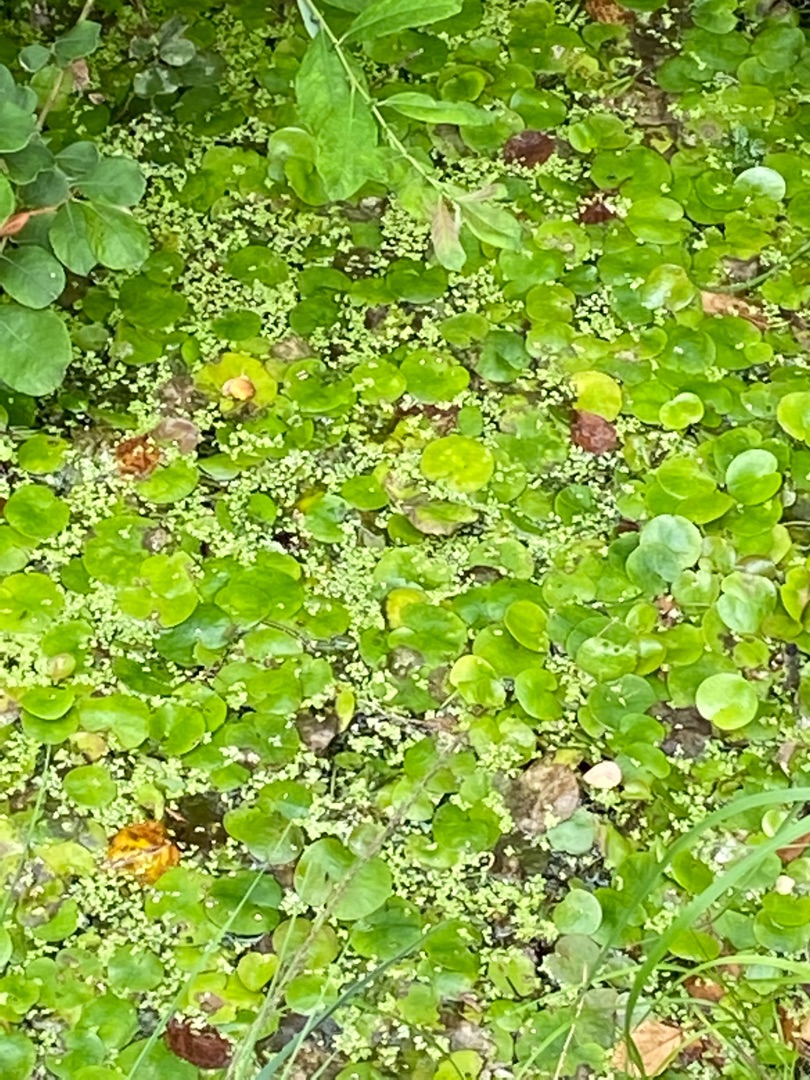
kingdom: Plantae
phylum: Tracheophyta
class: Liliopsida
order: Alismatales
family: Hydrocharitaceae
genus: Hydrocharis
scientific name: Hydrocharis morsus-ranae
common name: Frøbid
